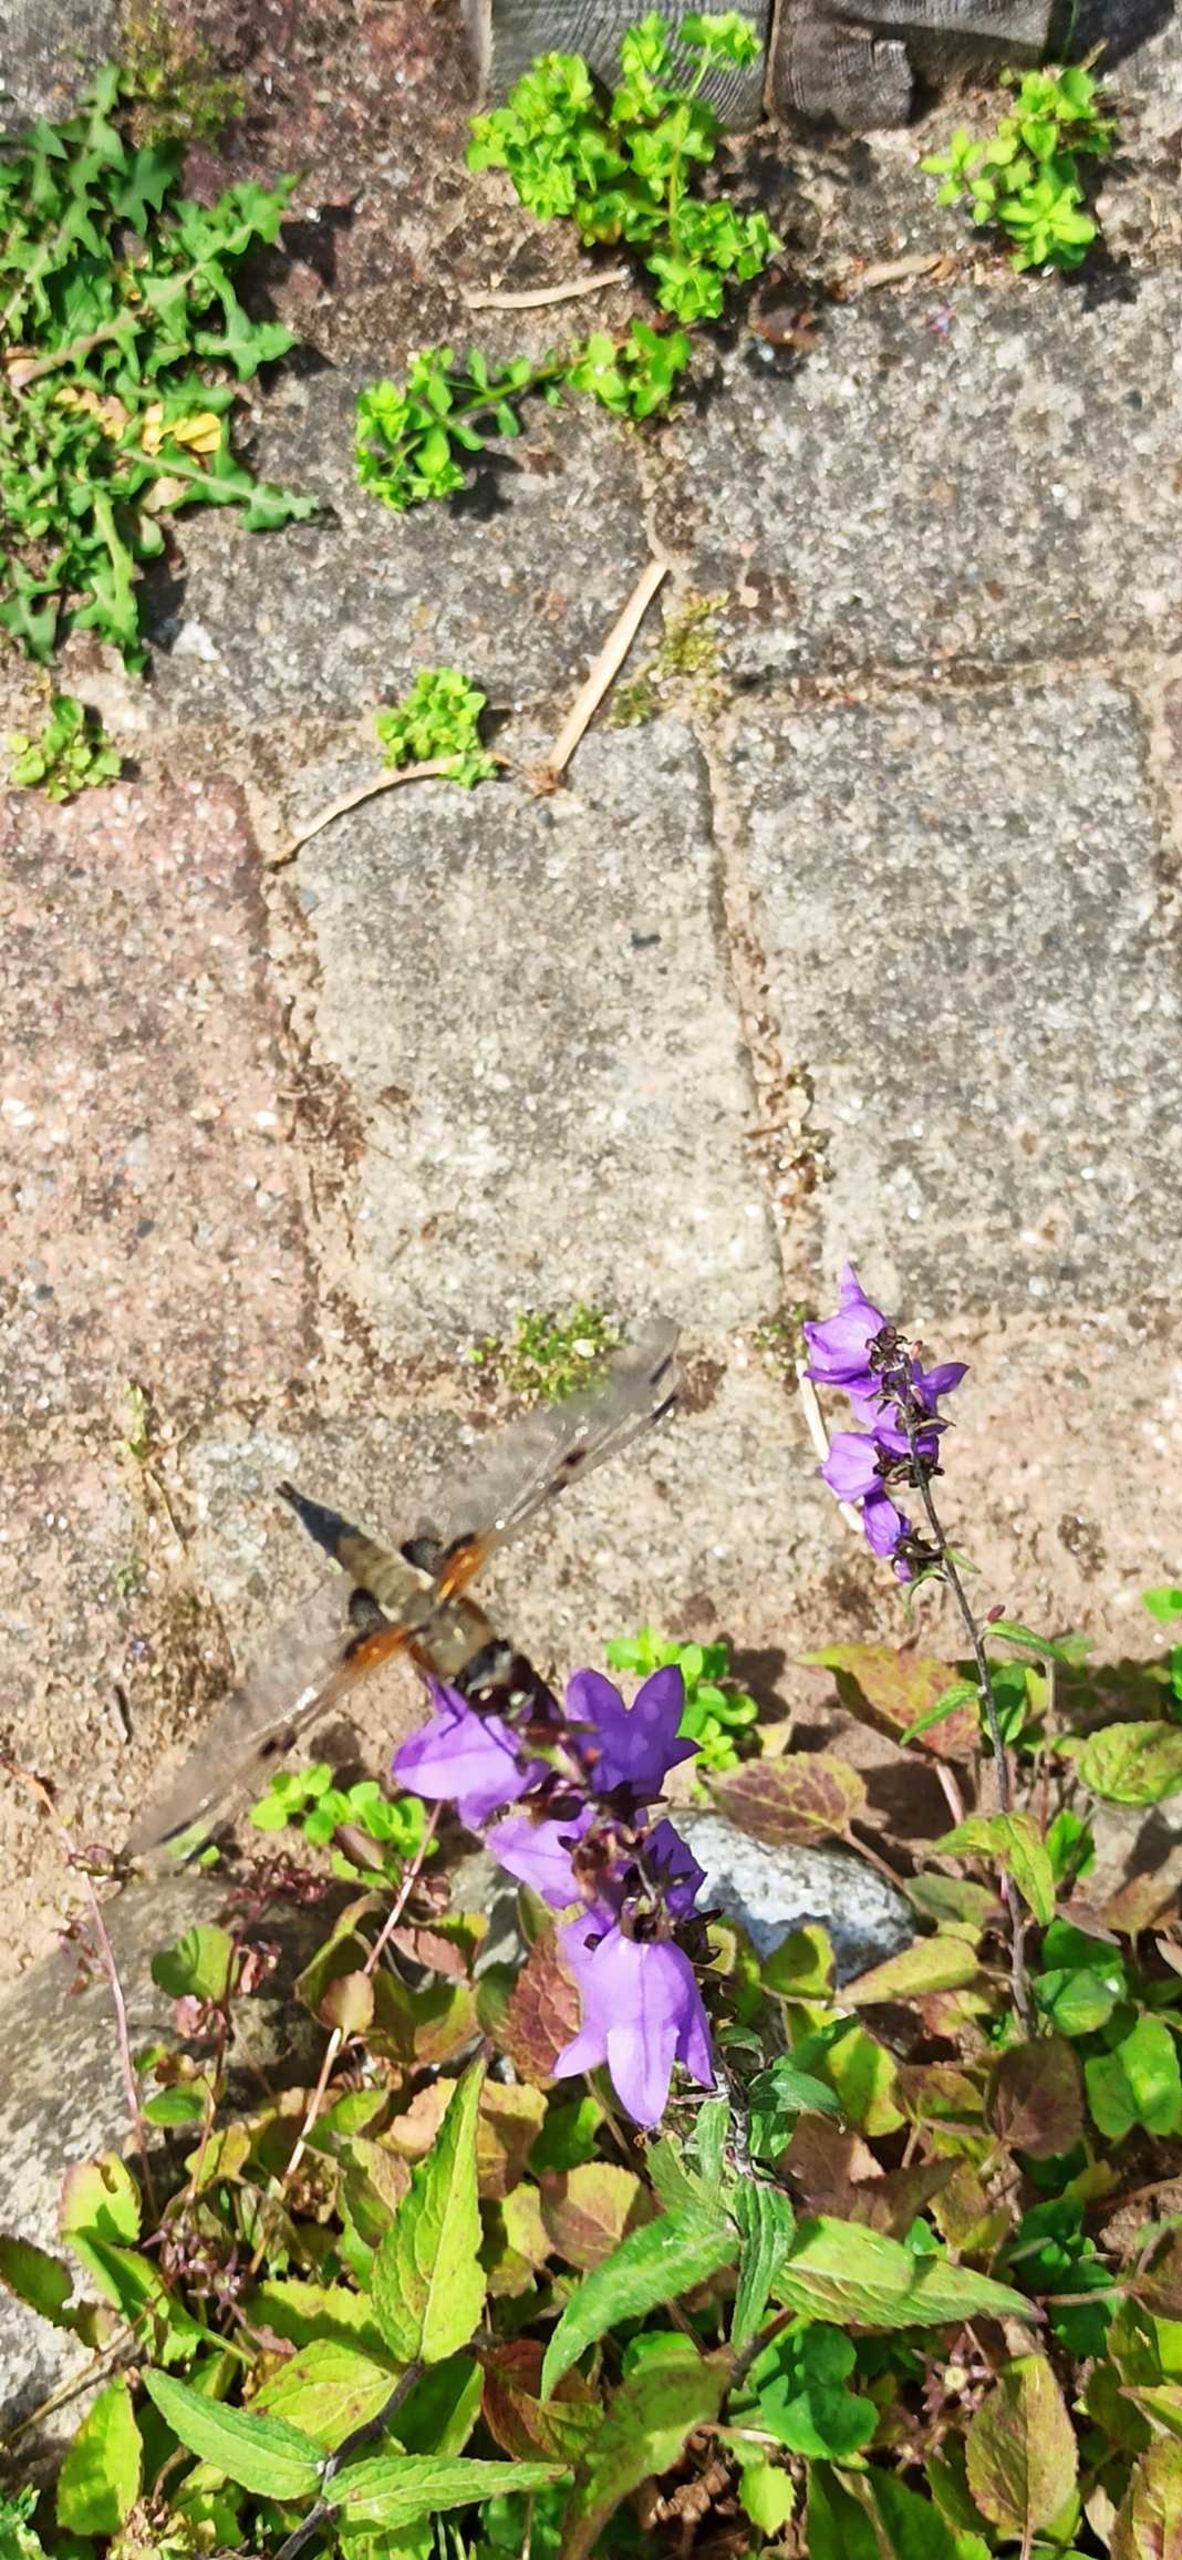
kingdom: Animalia
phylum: Arthropoda
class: Insecta
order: Odonata
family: Libellulidae
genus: Libellula
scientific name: Libellula quadrimaculata
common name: Fireplettet libel
